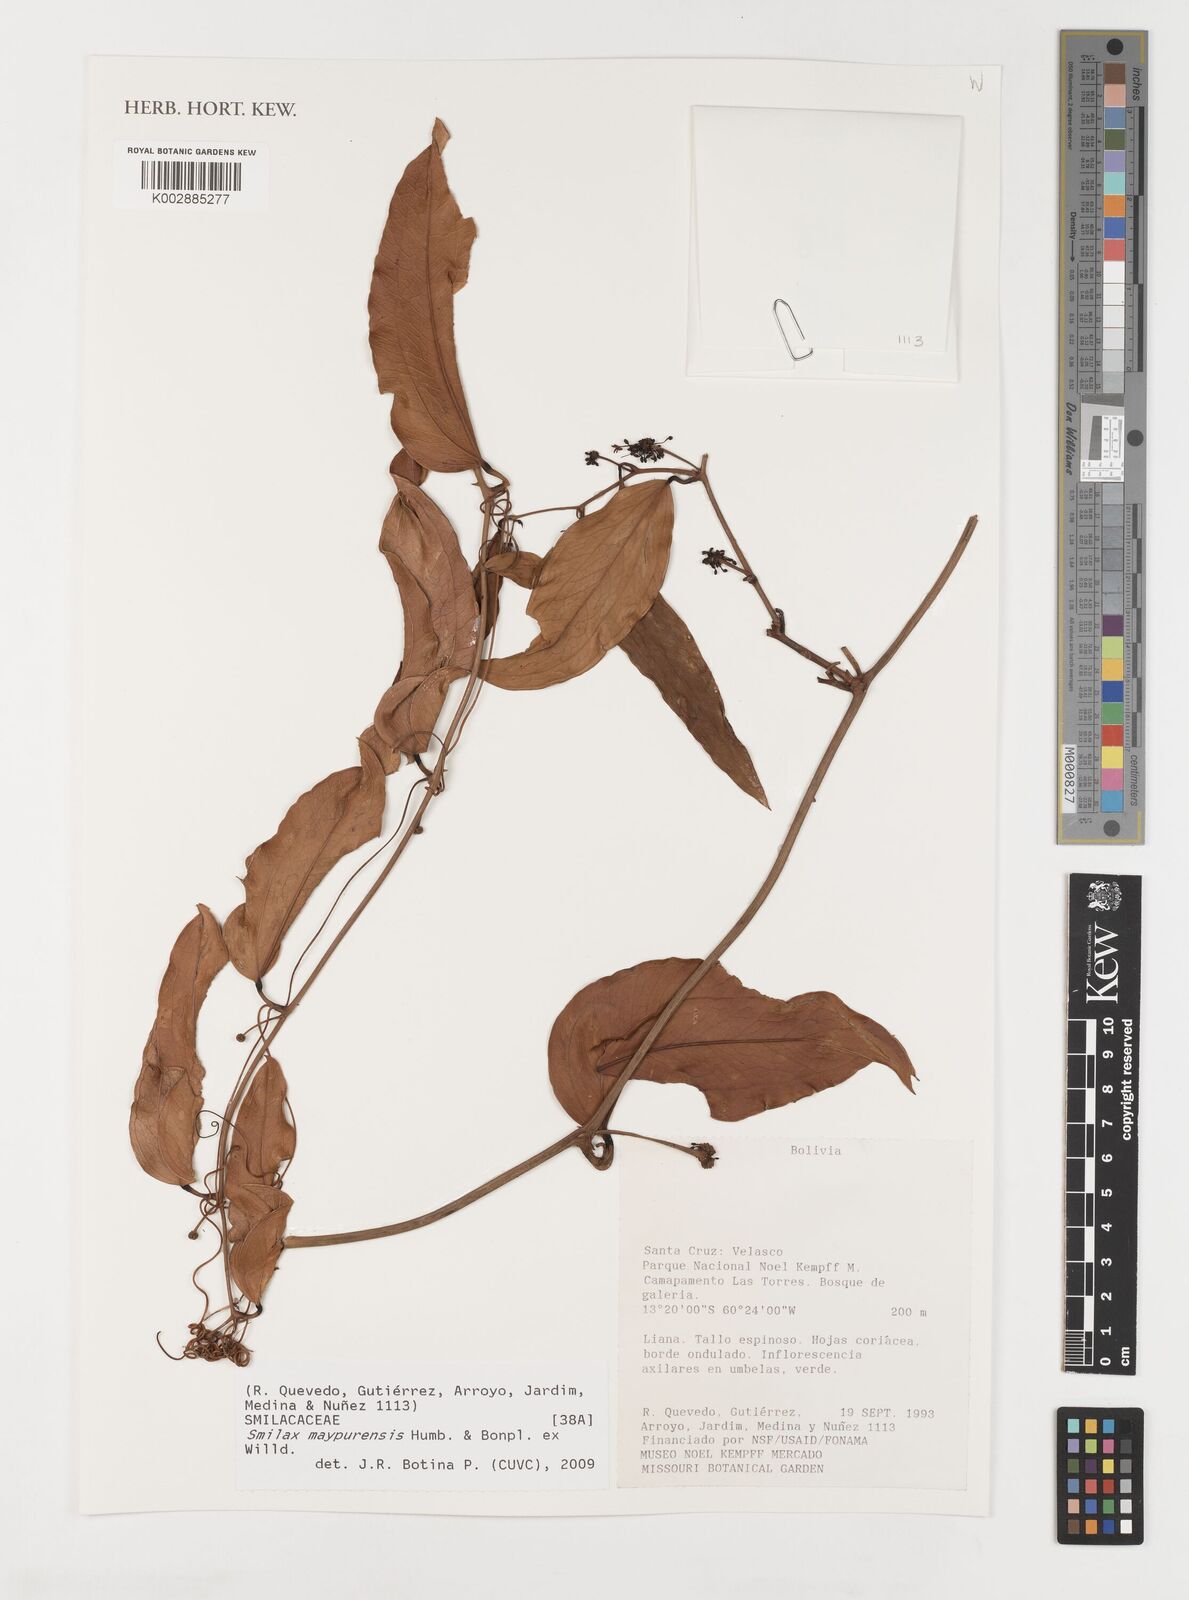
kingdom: Plantae
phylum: Tracheophyta
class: Liliopsida
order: Liliales
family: Smilacaceae
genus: Smilax
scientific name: Smilax maypurensis
